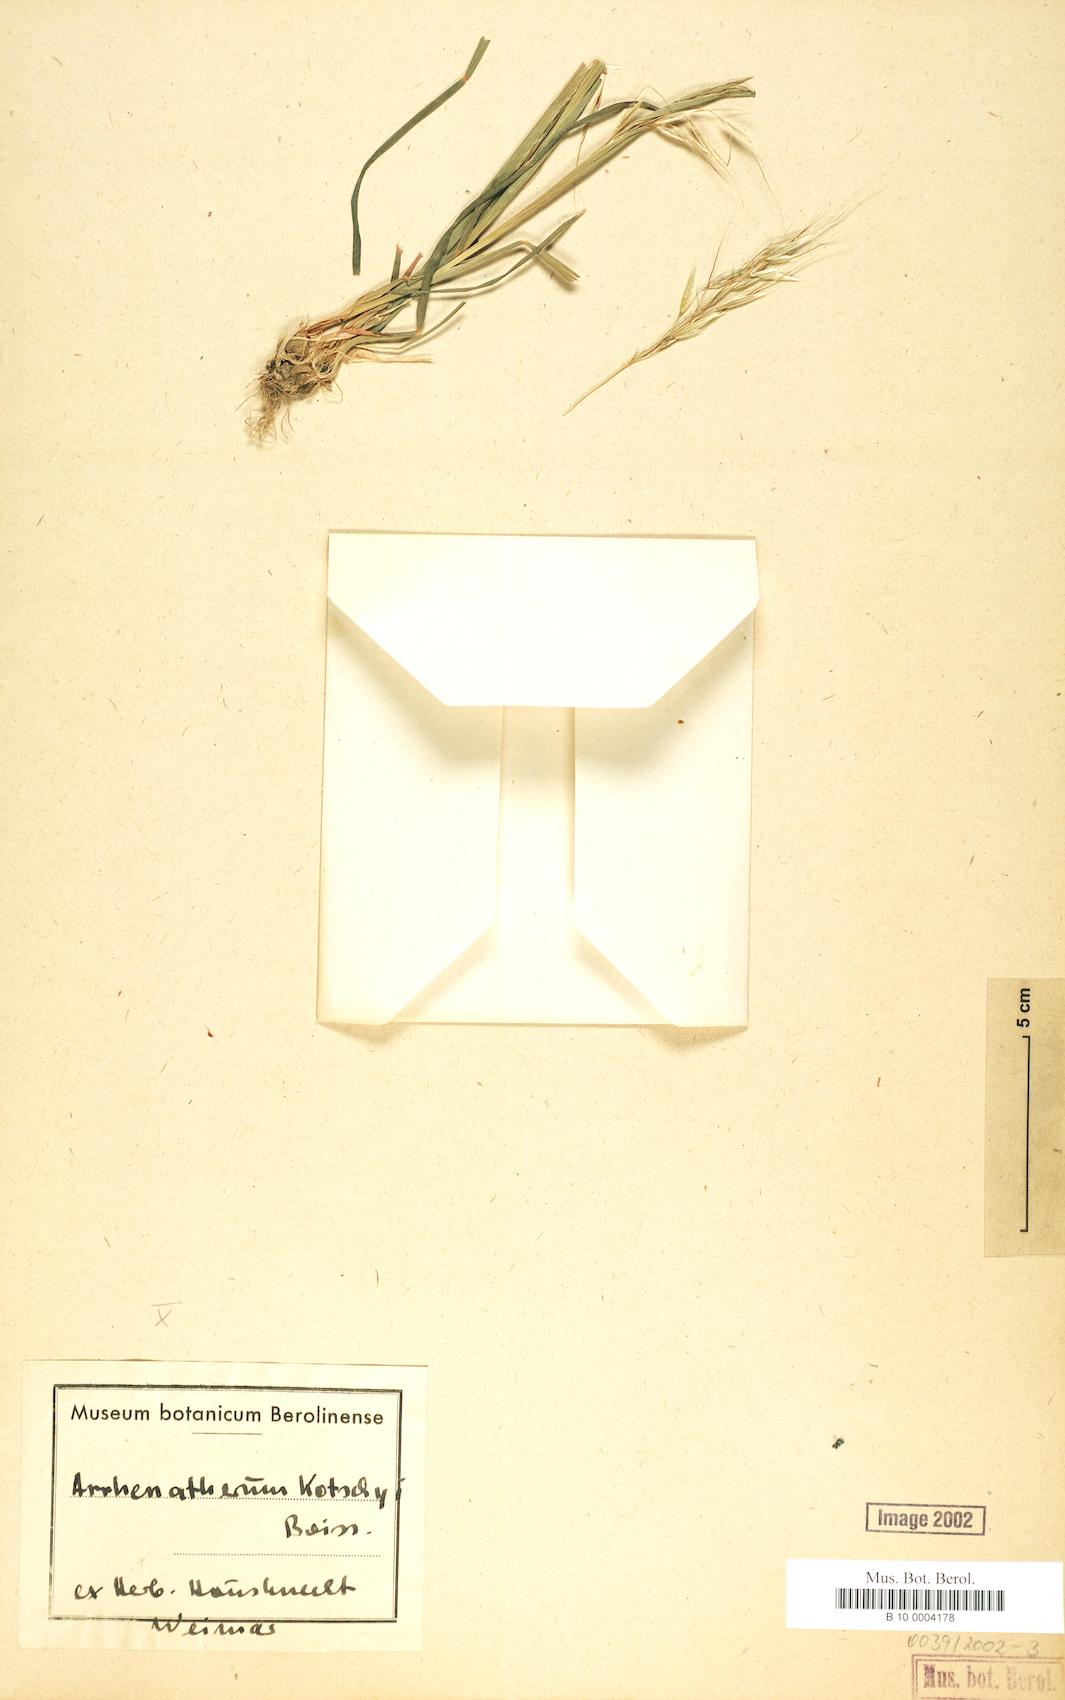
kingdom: Plantae
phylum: Tracheophyta
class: Liliopsida
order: Poales
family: Poaceae
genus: Arrhenatherum
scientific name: Arrhenatherum kotschyi
